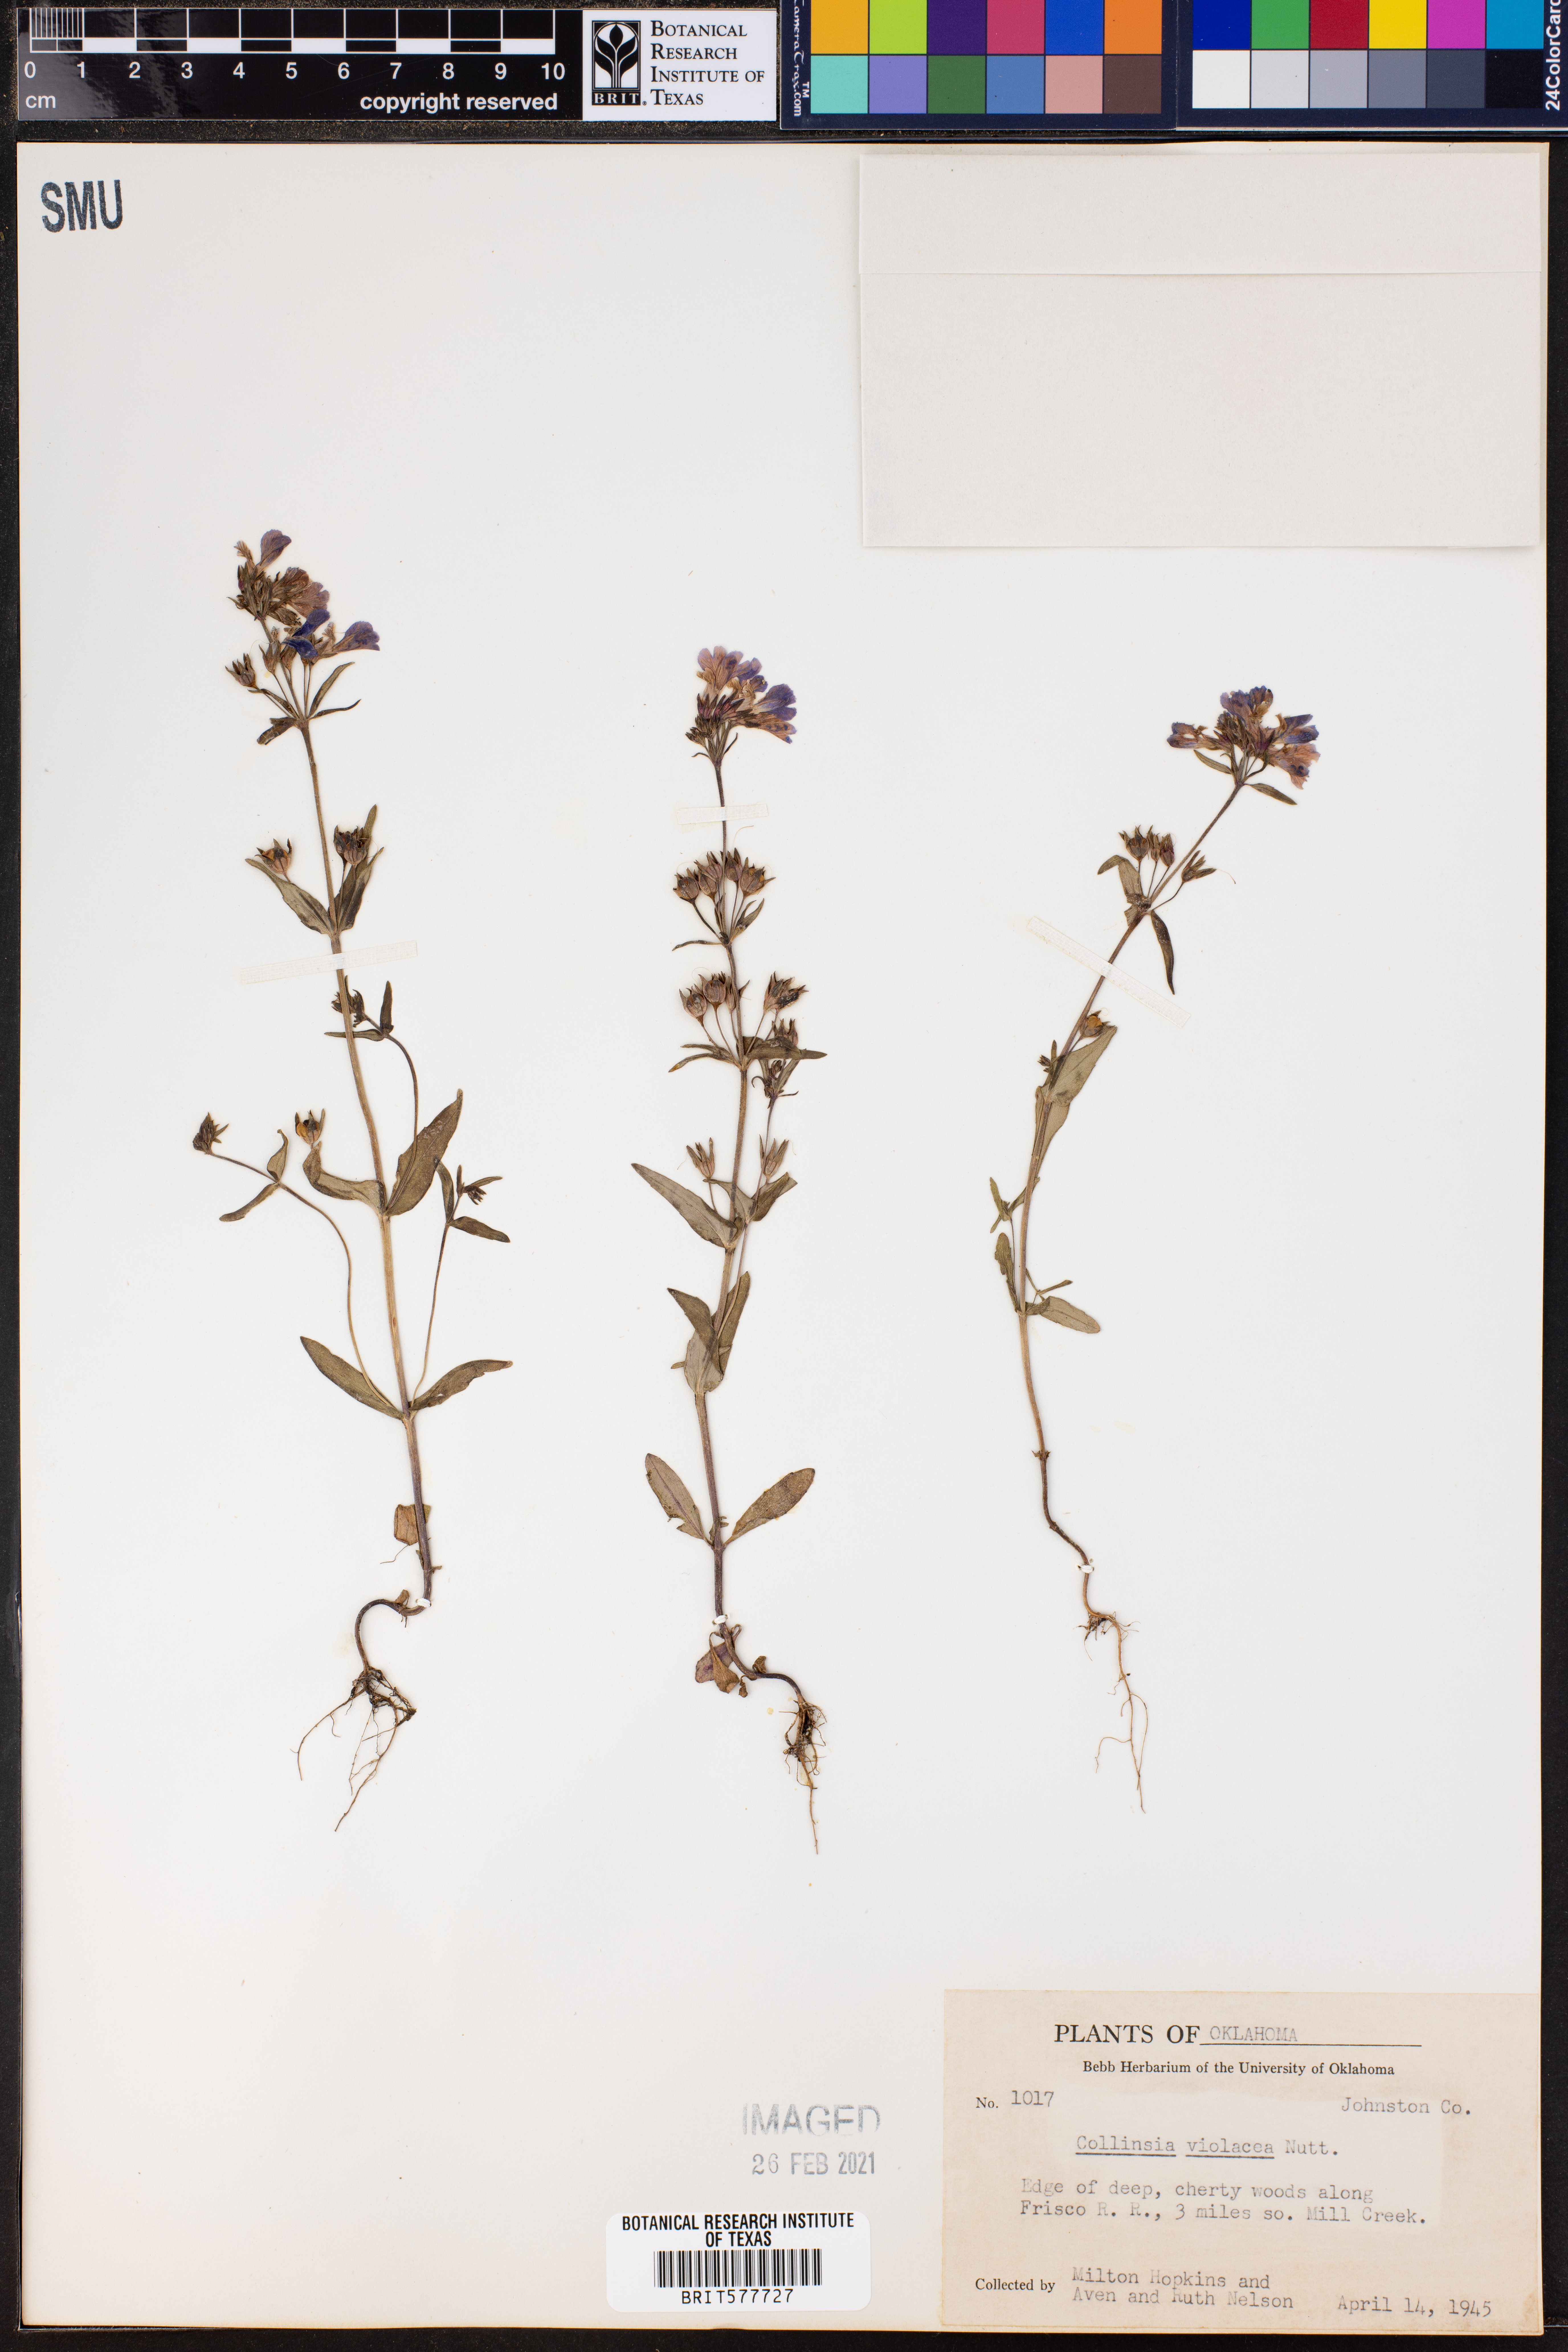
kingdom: Plantae
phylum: Tracheophyta
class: Magnoliopsida
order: Lamiales
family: Plantaginaceae
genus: Collinsia
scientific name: Collinsia violacea
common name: Violet collinsia
